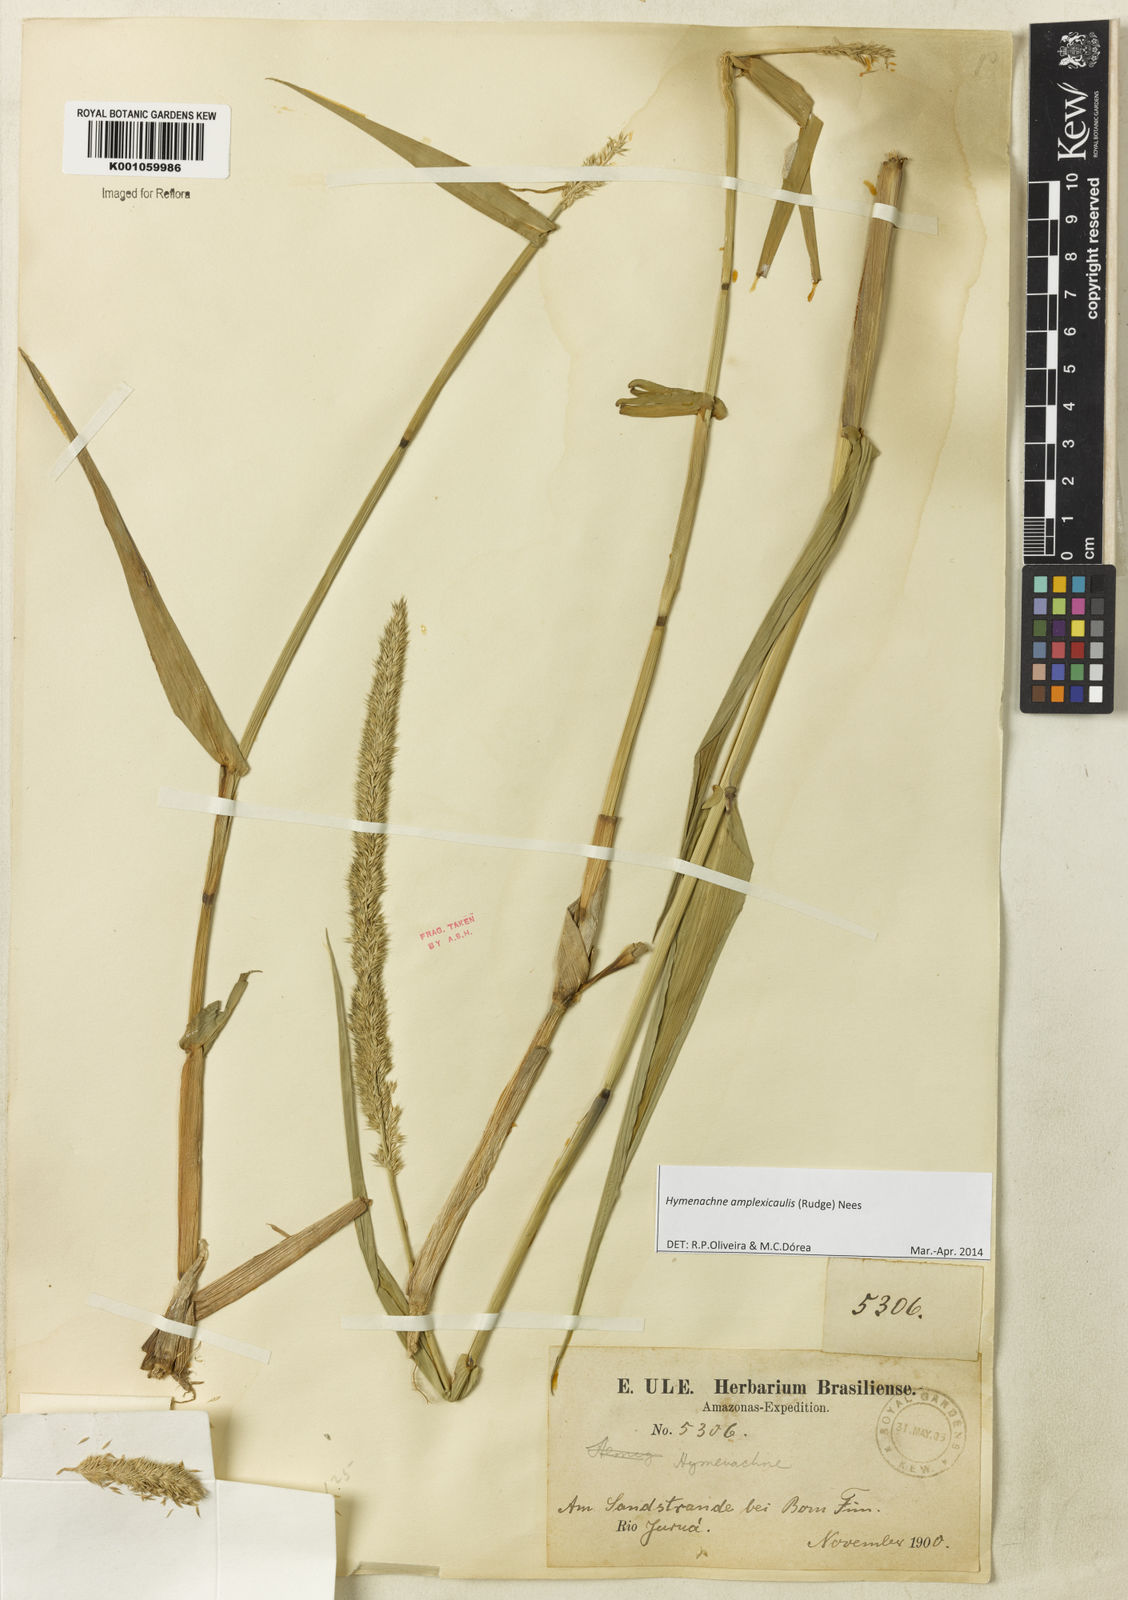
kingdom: Plantae
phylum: Tracheophyta
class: Liliopsida
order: Poales
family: Poaceae
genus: Hymenachne
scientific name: Hymenachne amplexicaulis
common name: Olive hymenachne
